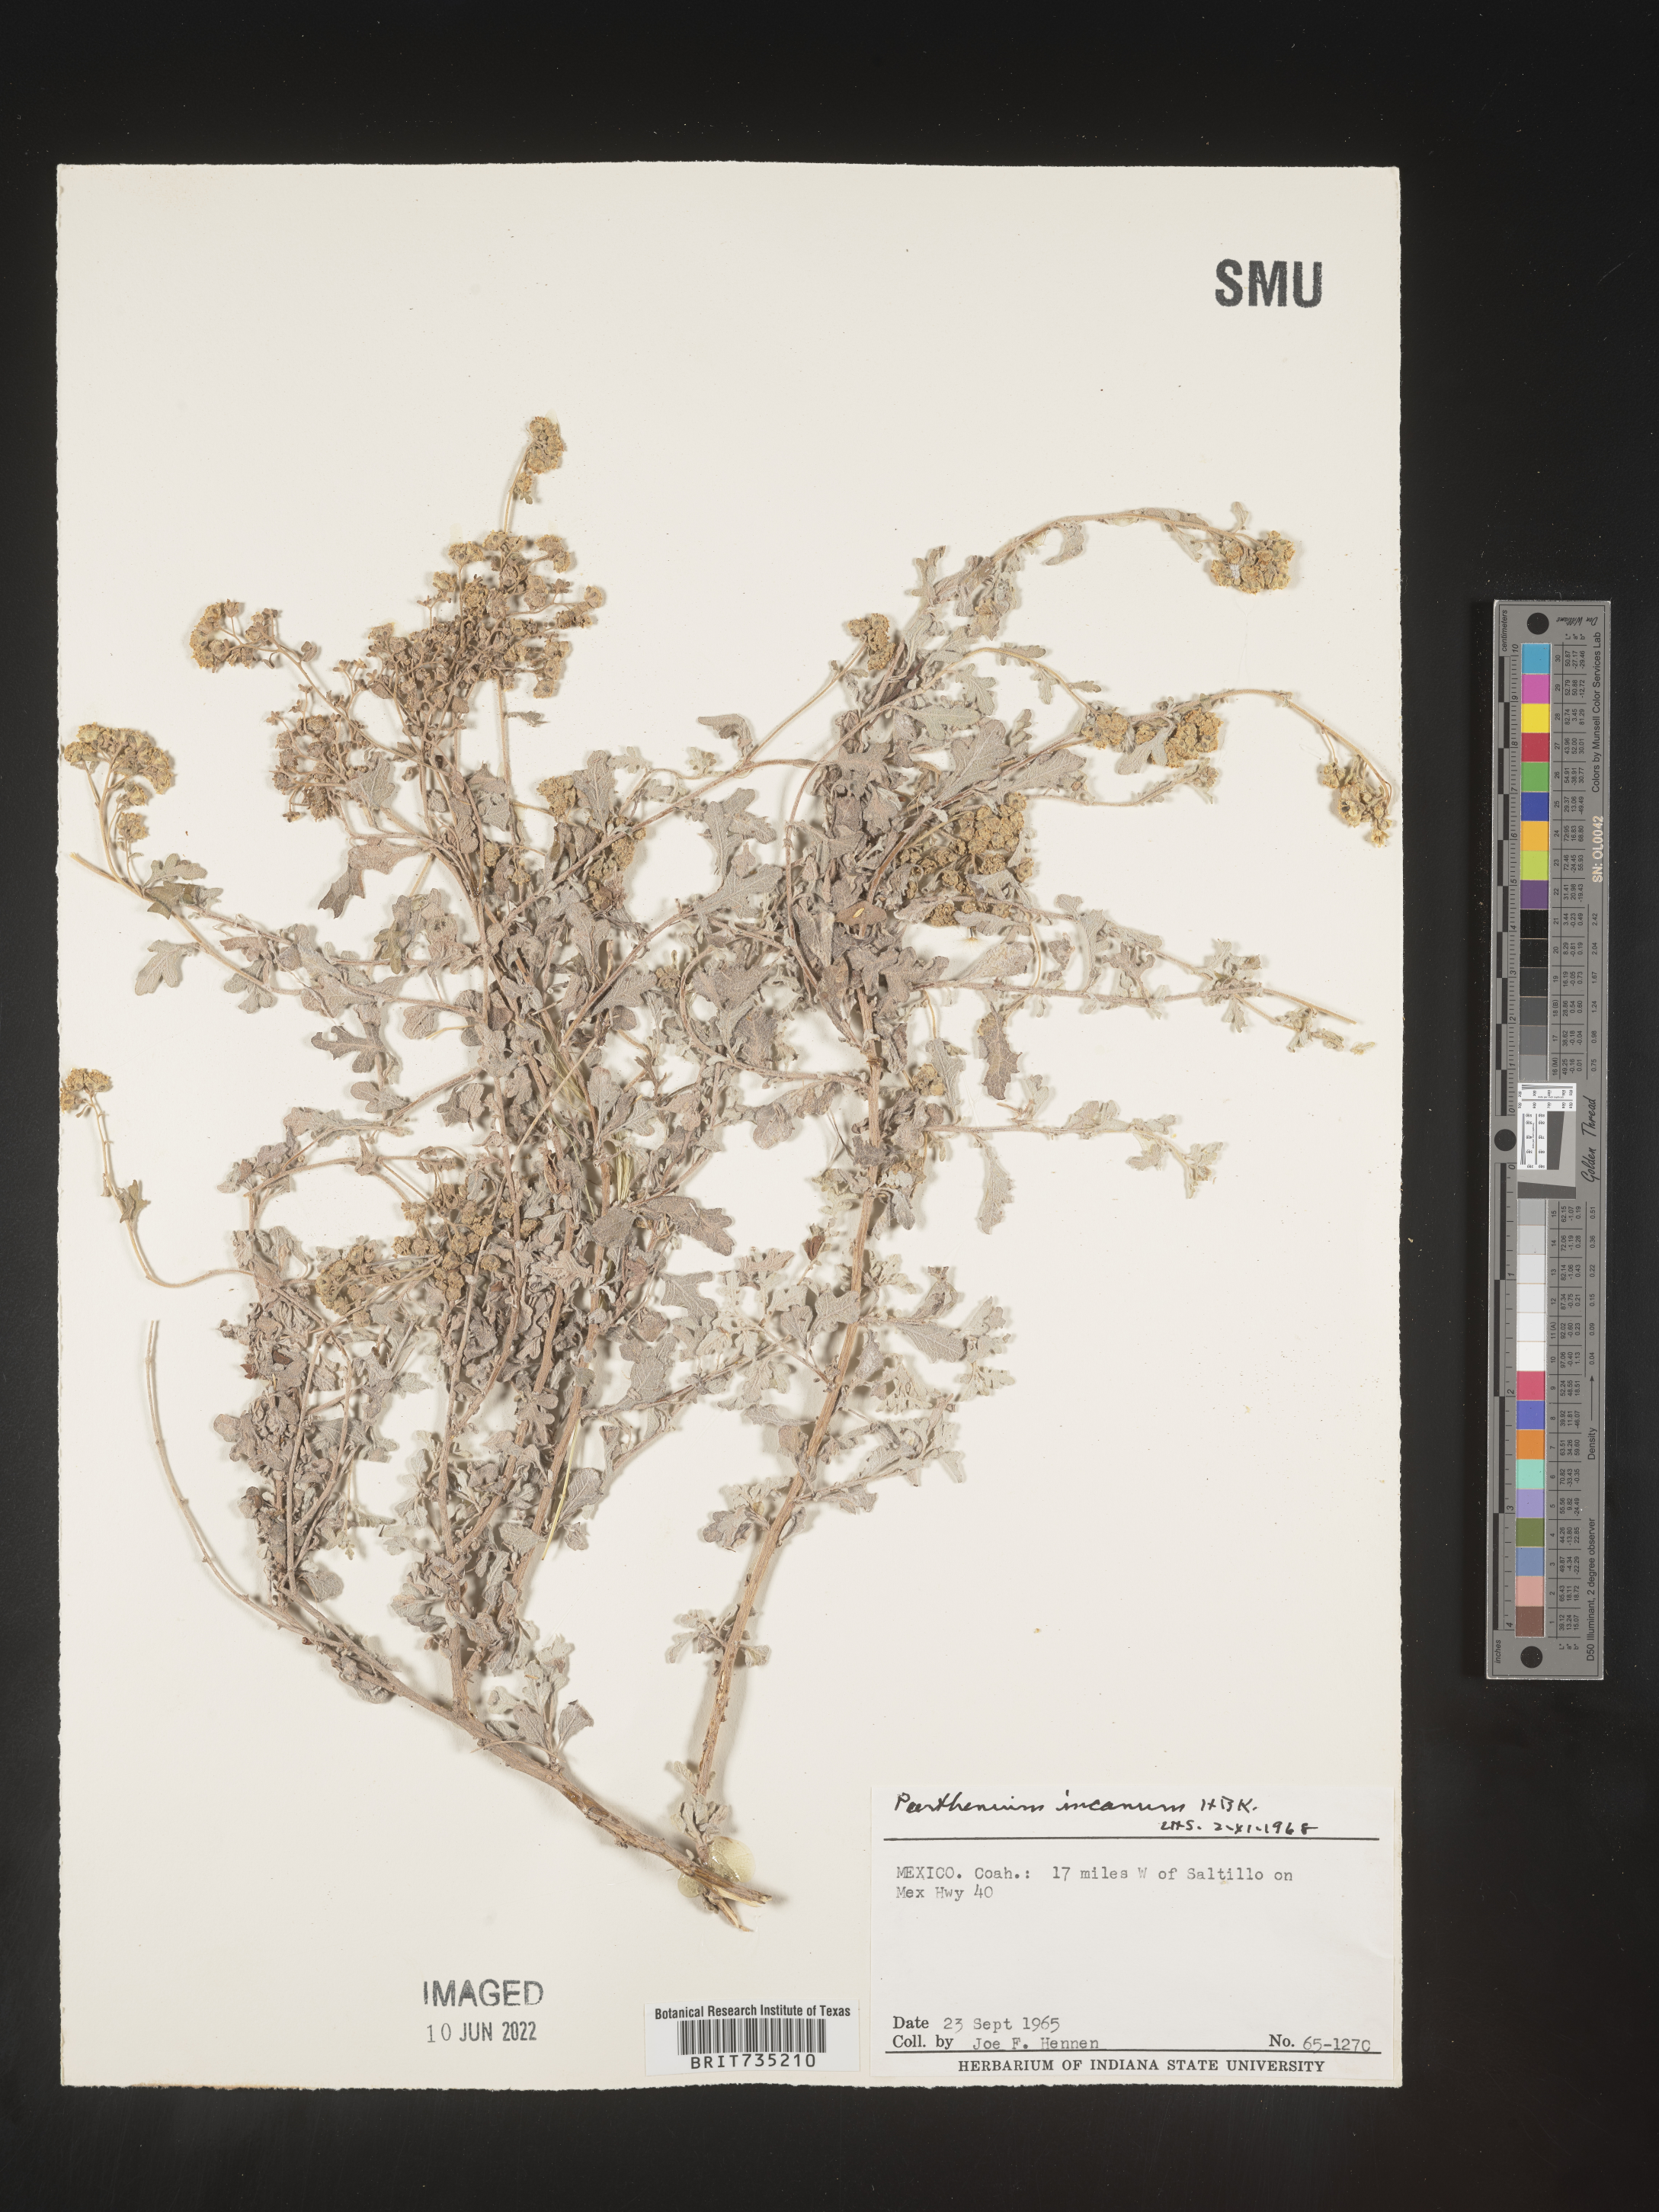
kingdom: Plantae
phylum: Tracheophyta
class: Magnoliopsida
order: Asterales
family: Asteraceae
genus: Parthenium
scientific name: Parthenium
